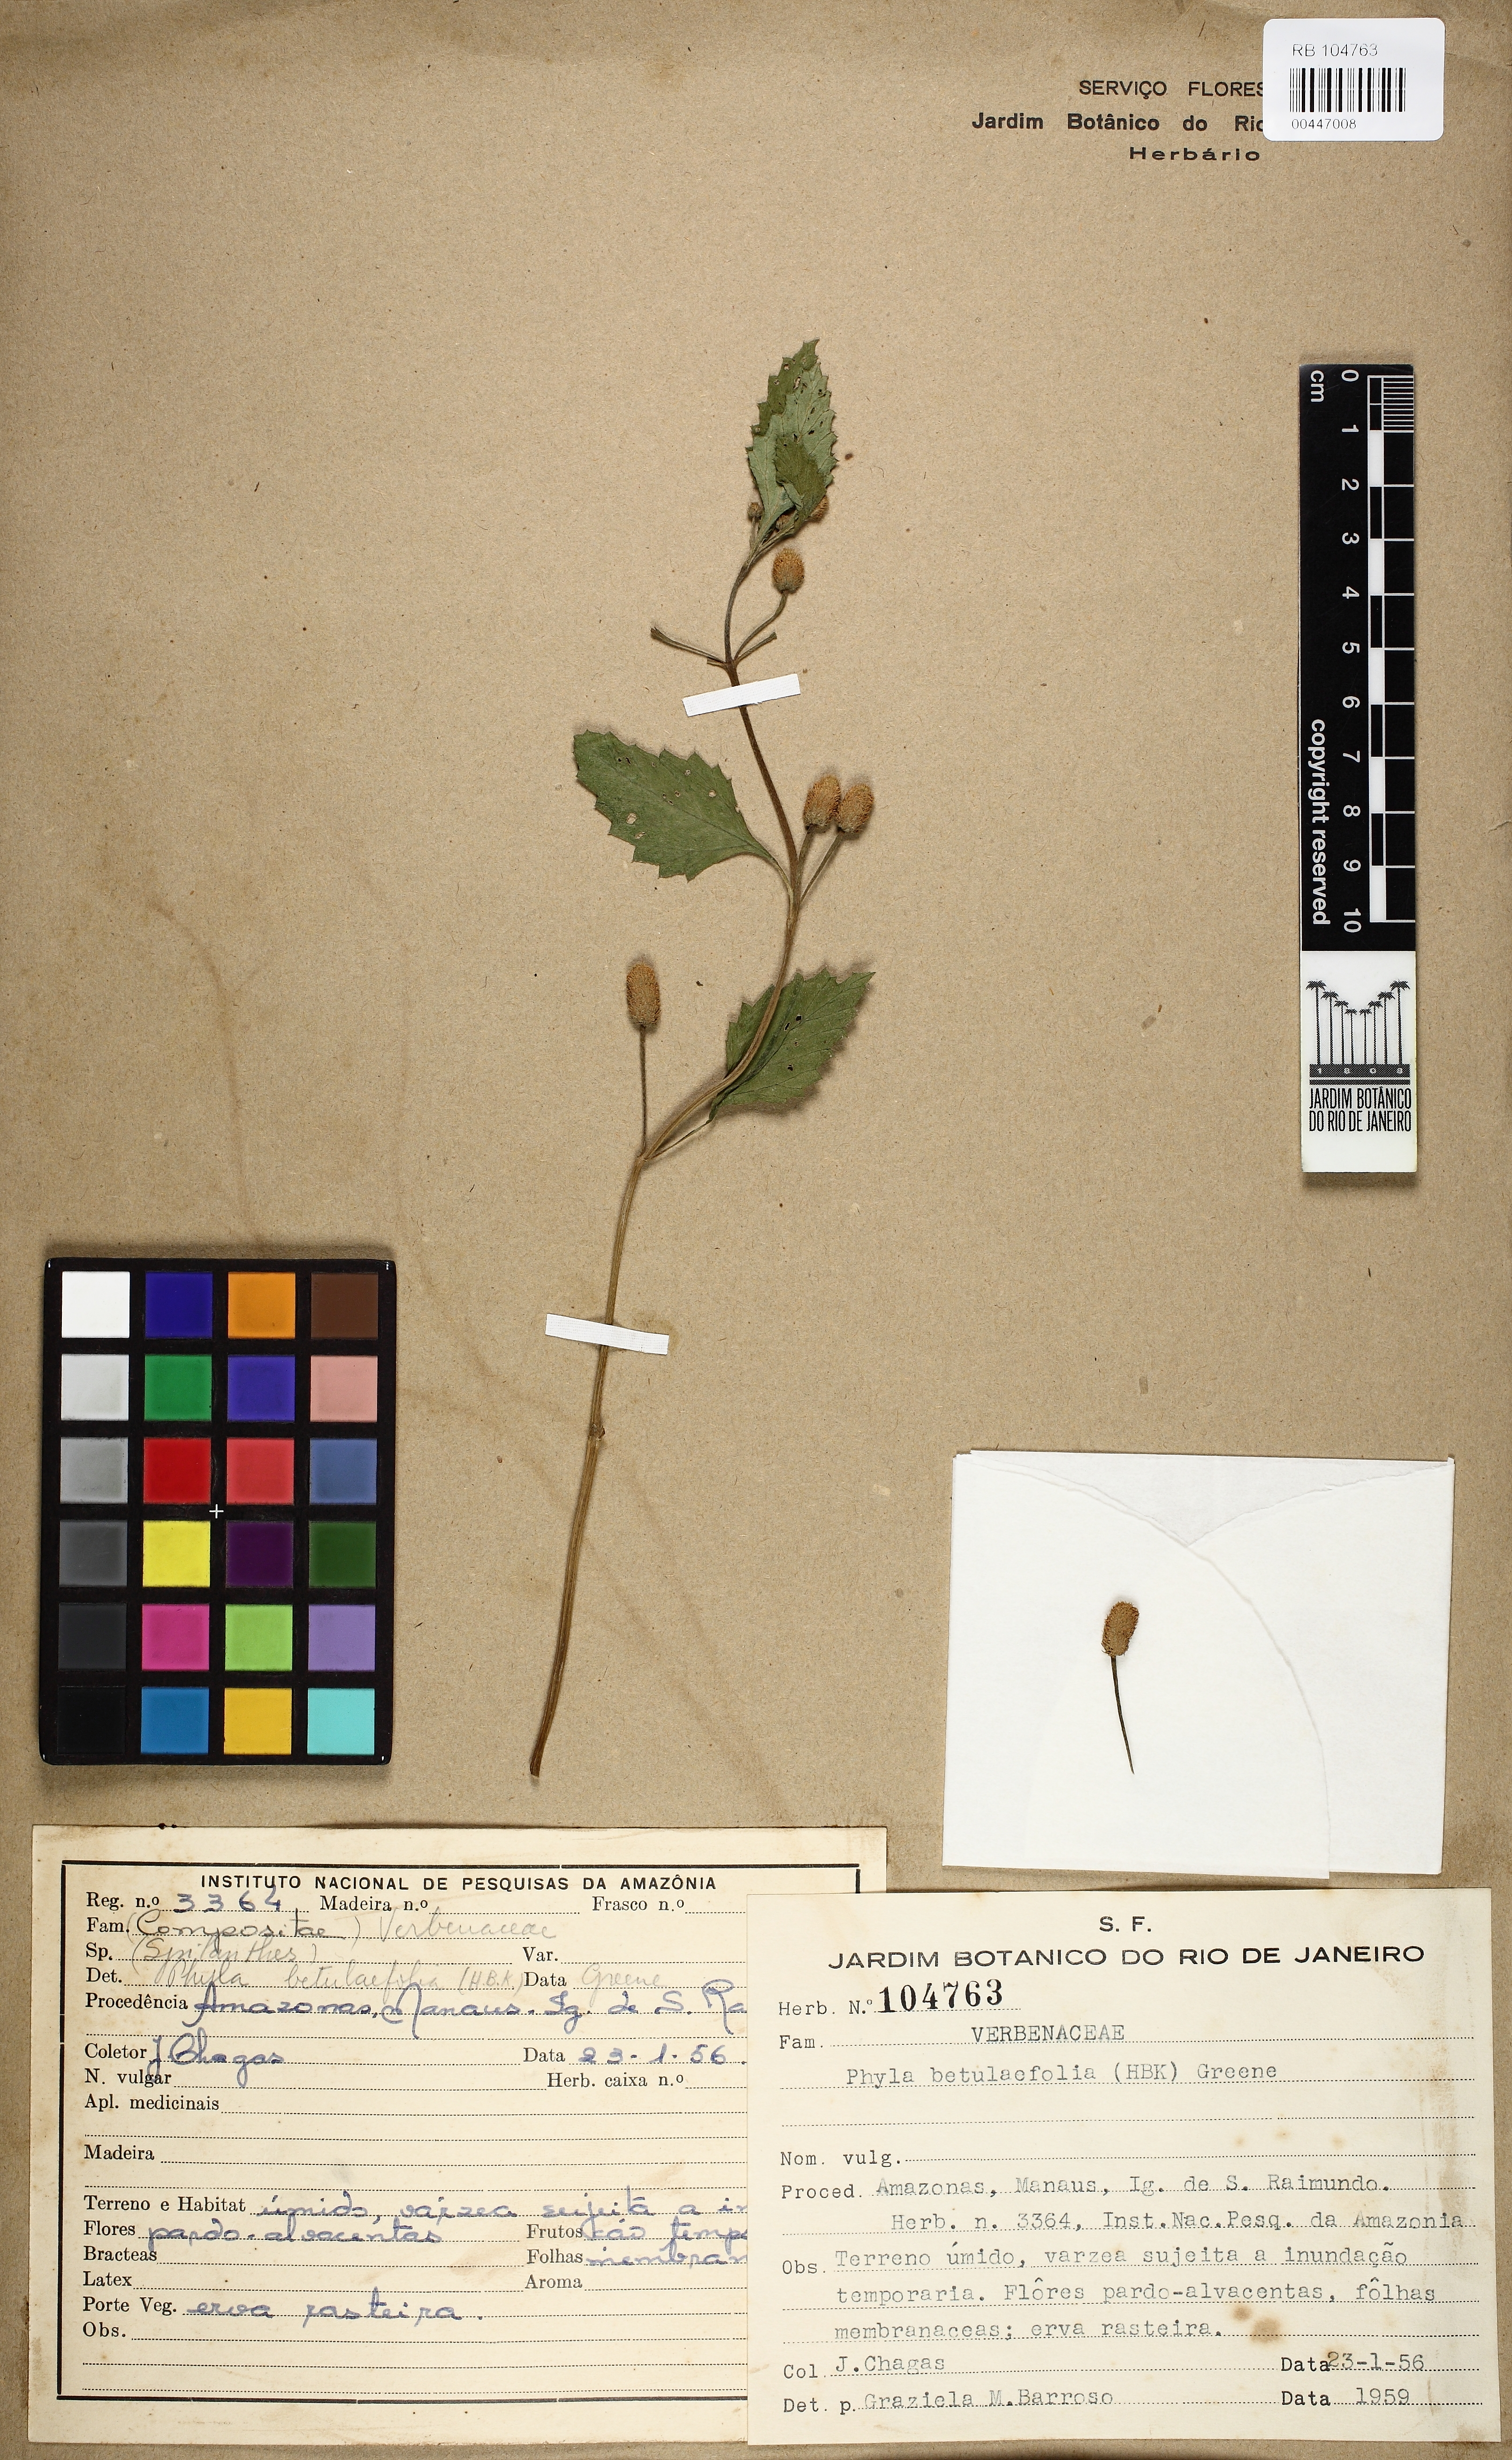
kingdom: Plantae
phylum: Tracheophyta
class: Magnoliopsida
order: Lamiales
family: Verbenaceae
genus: Phyla
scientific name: Phyla betulifolia
